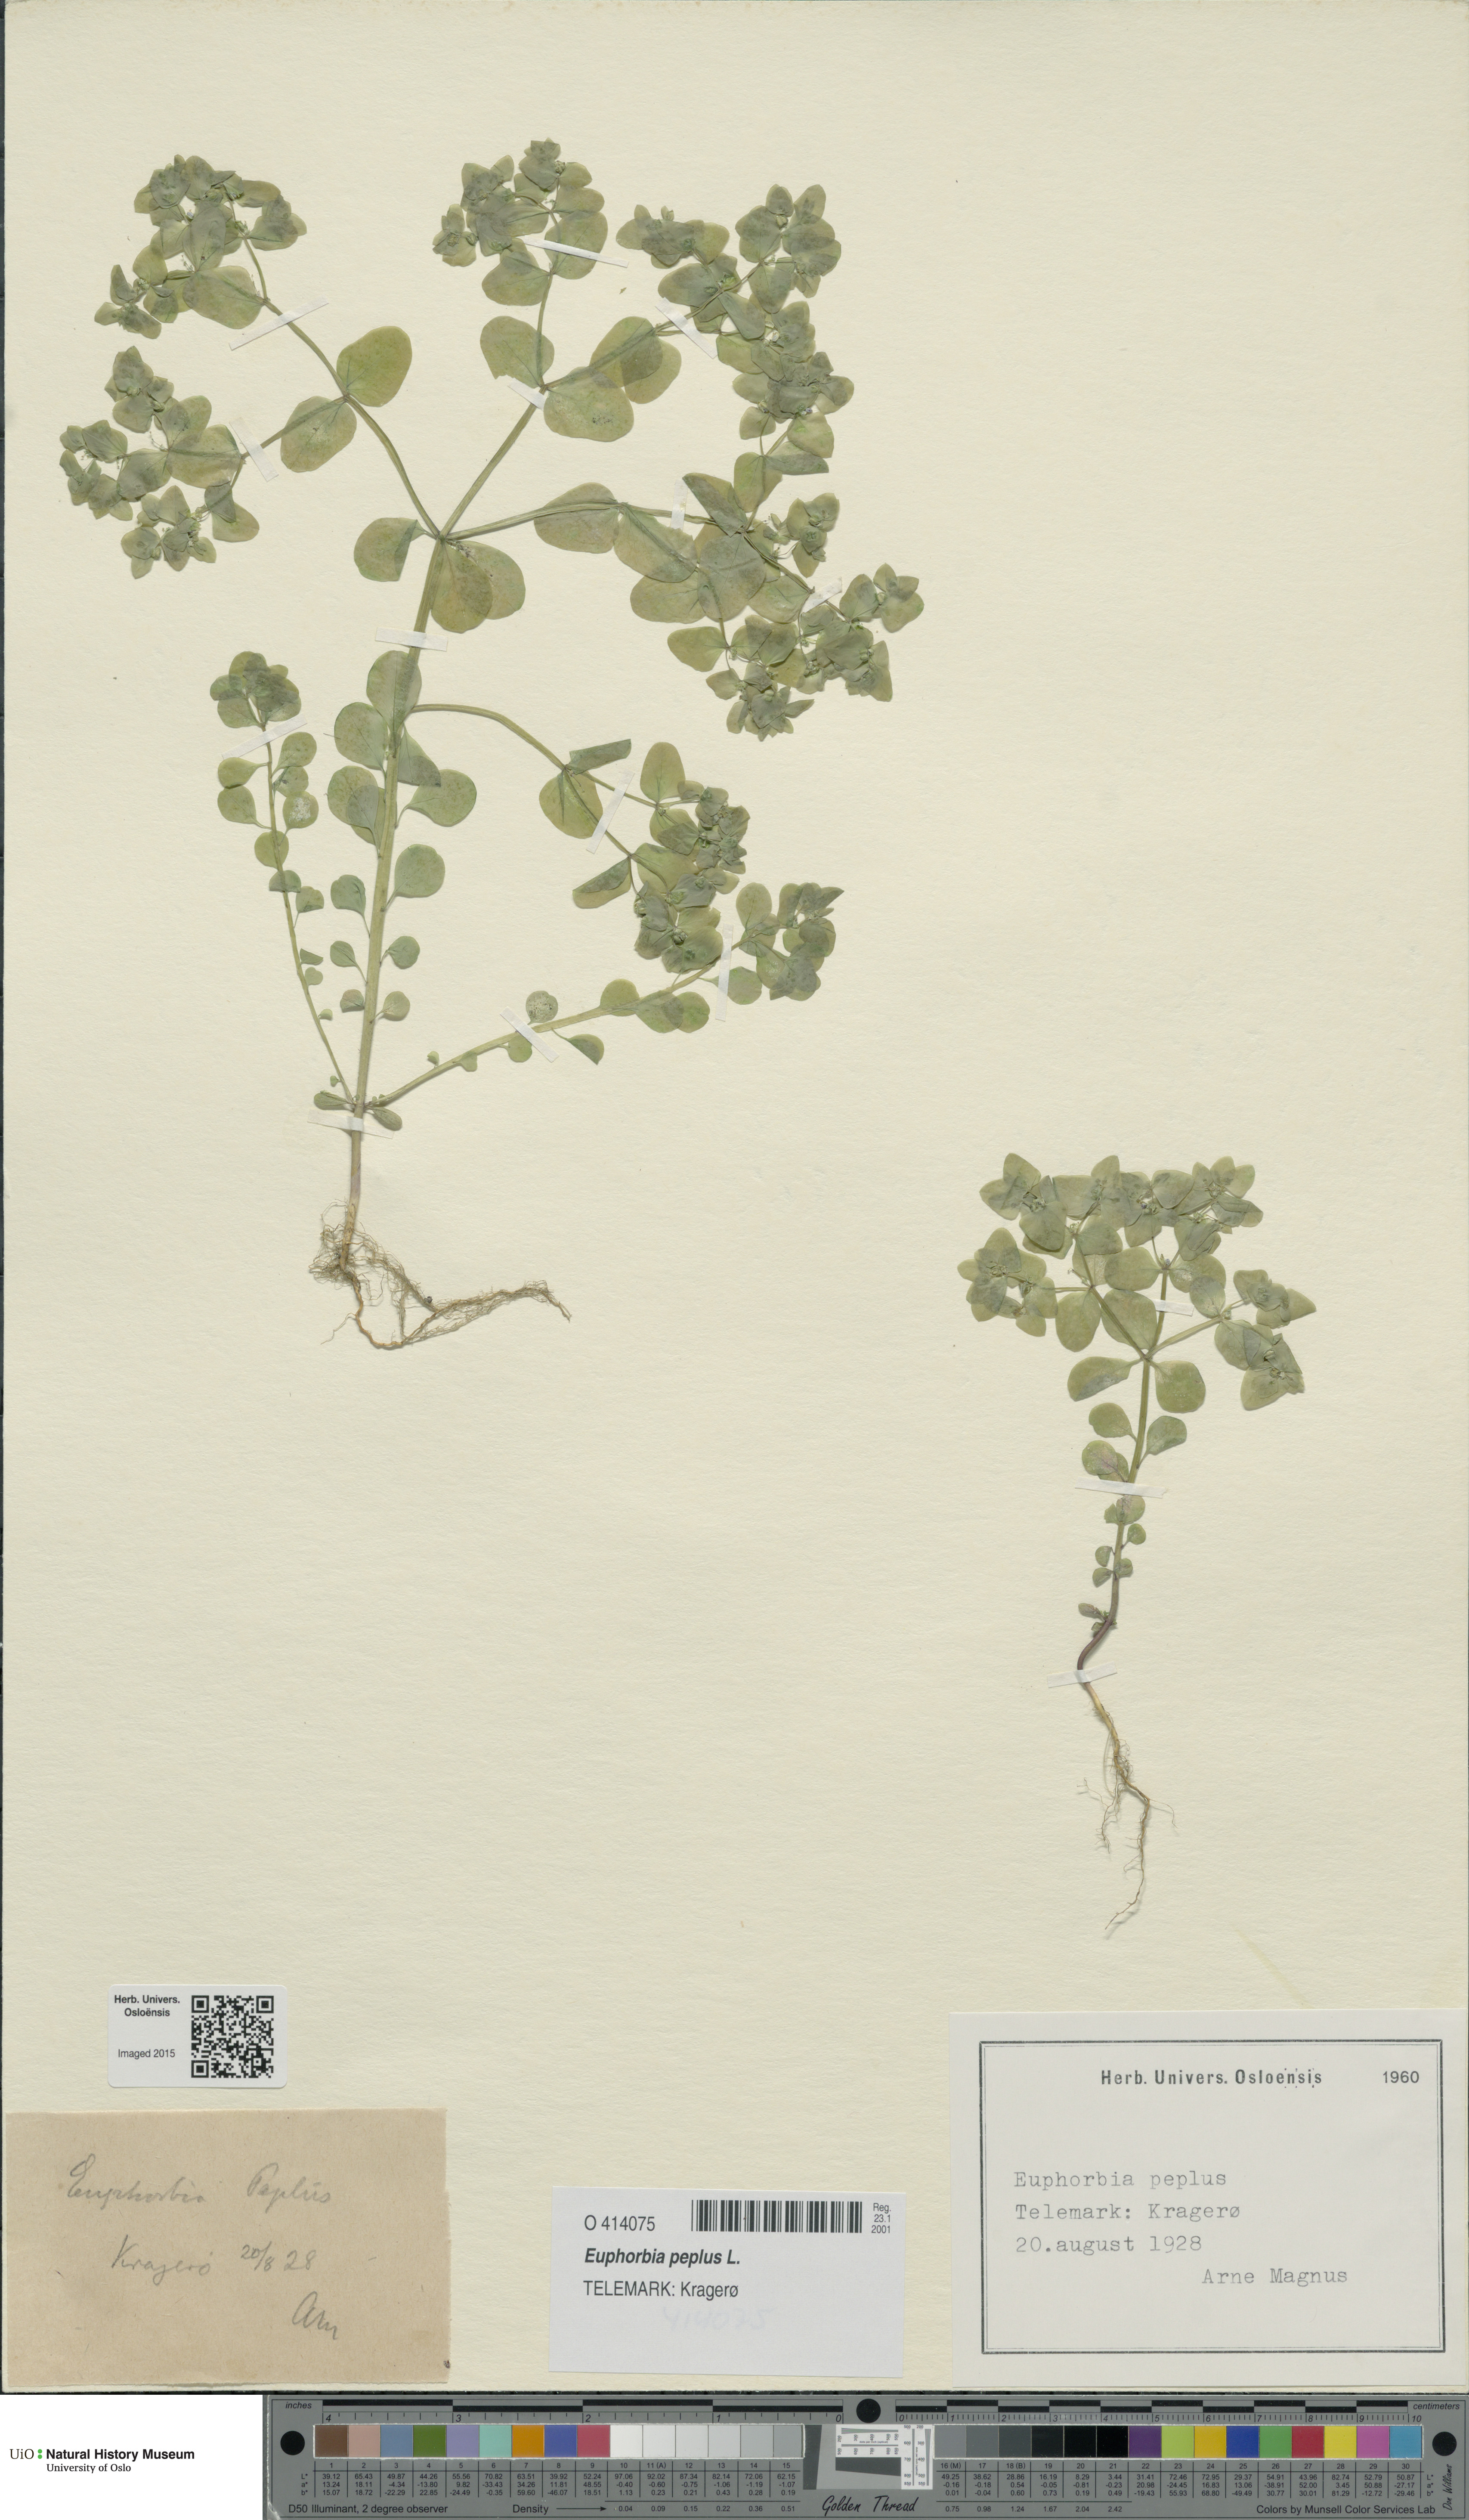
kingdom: Plantae
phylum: Tracheophyta
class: Magnoliopsida
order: Malpighiales
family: Euphorbiaceae
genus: Euphorbia
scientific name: Euphorbia peplus
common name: Petty spurge
